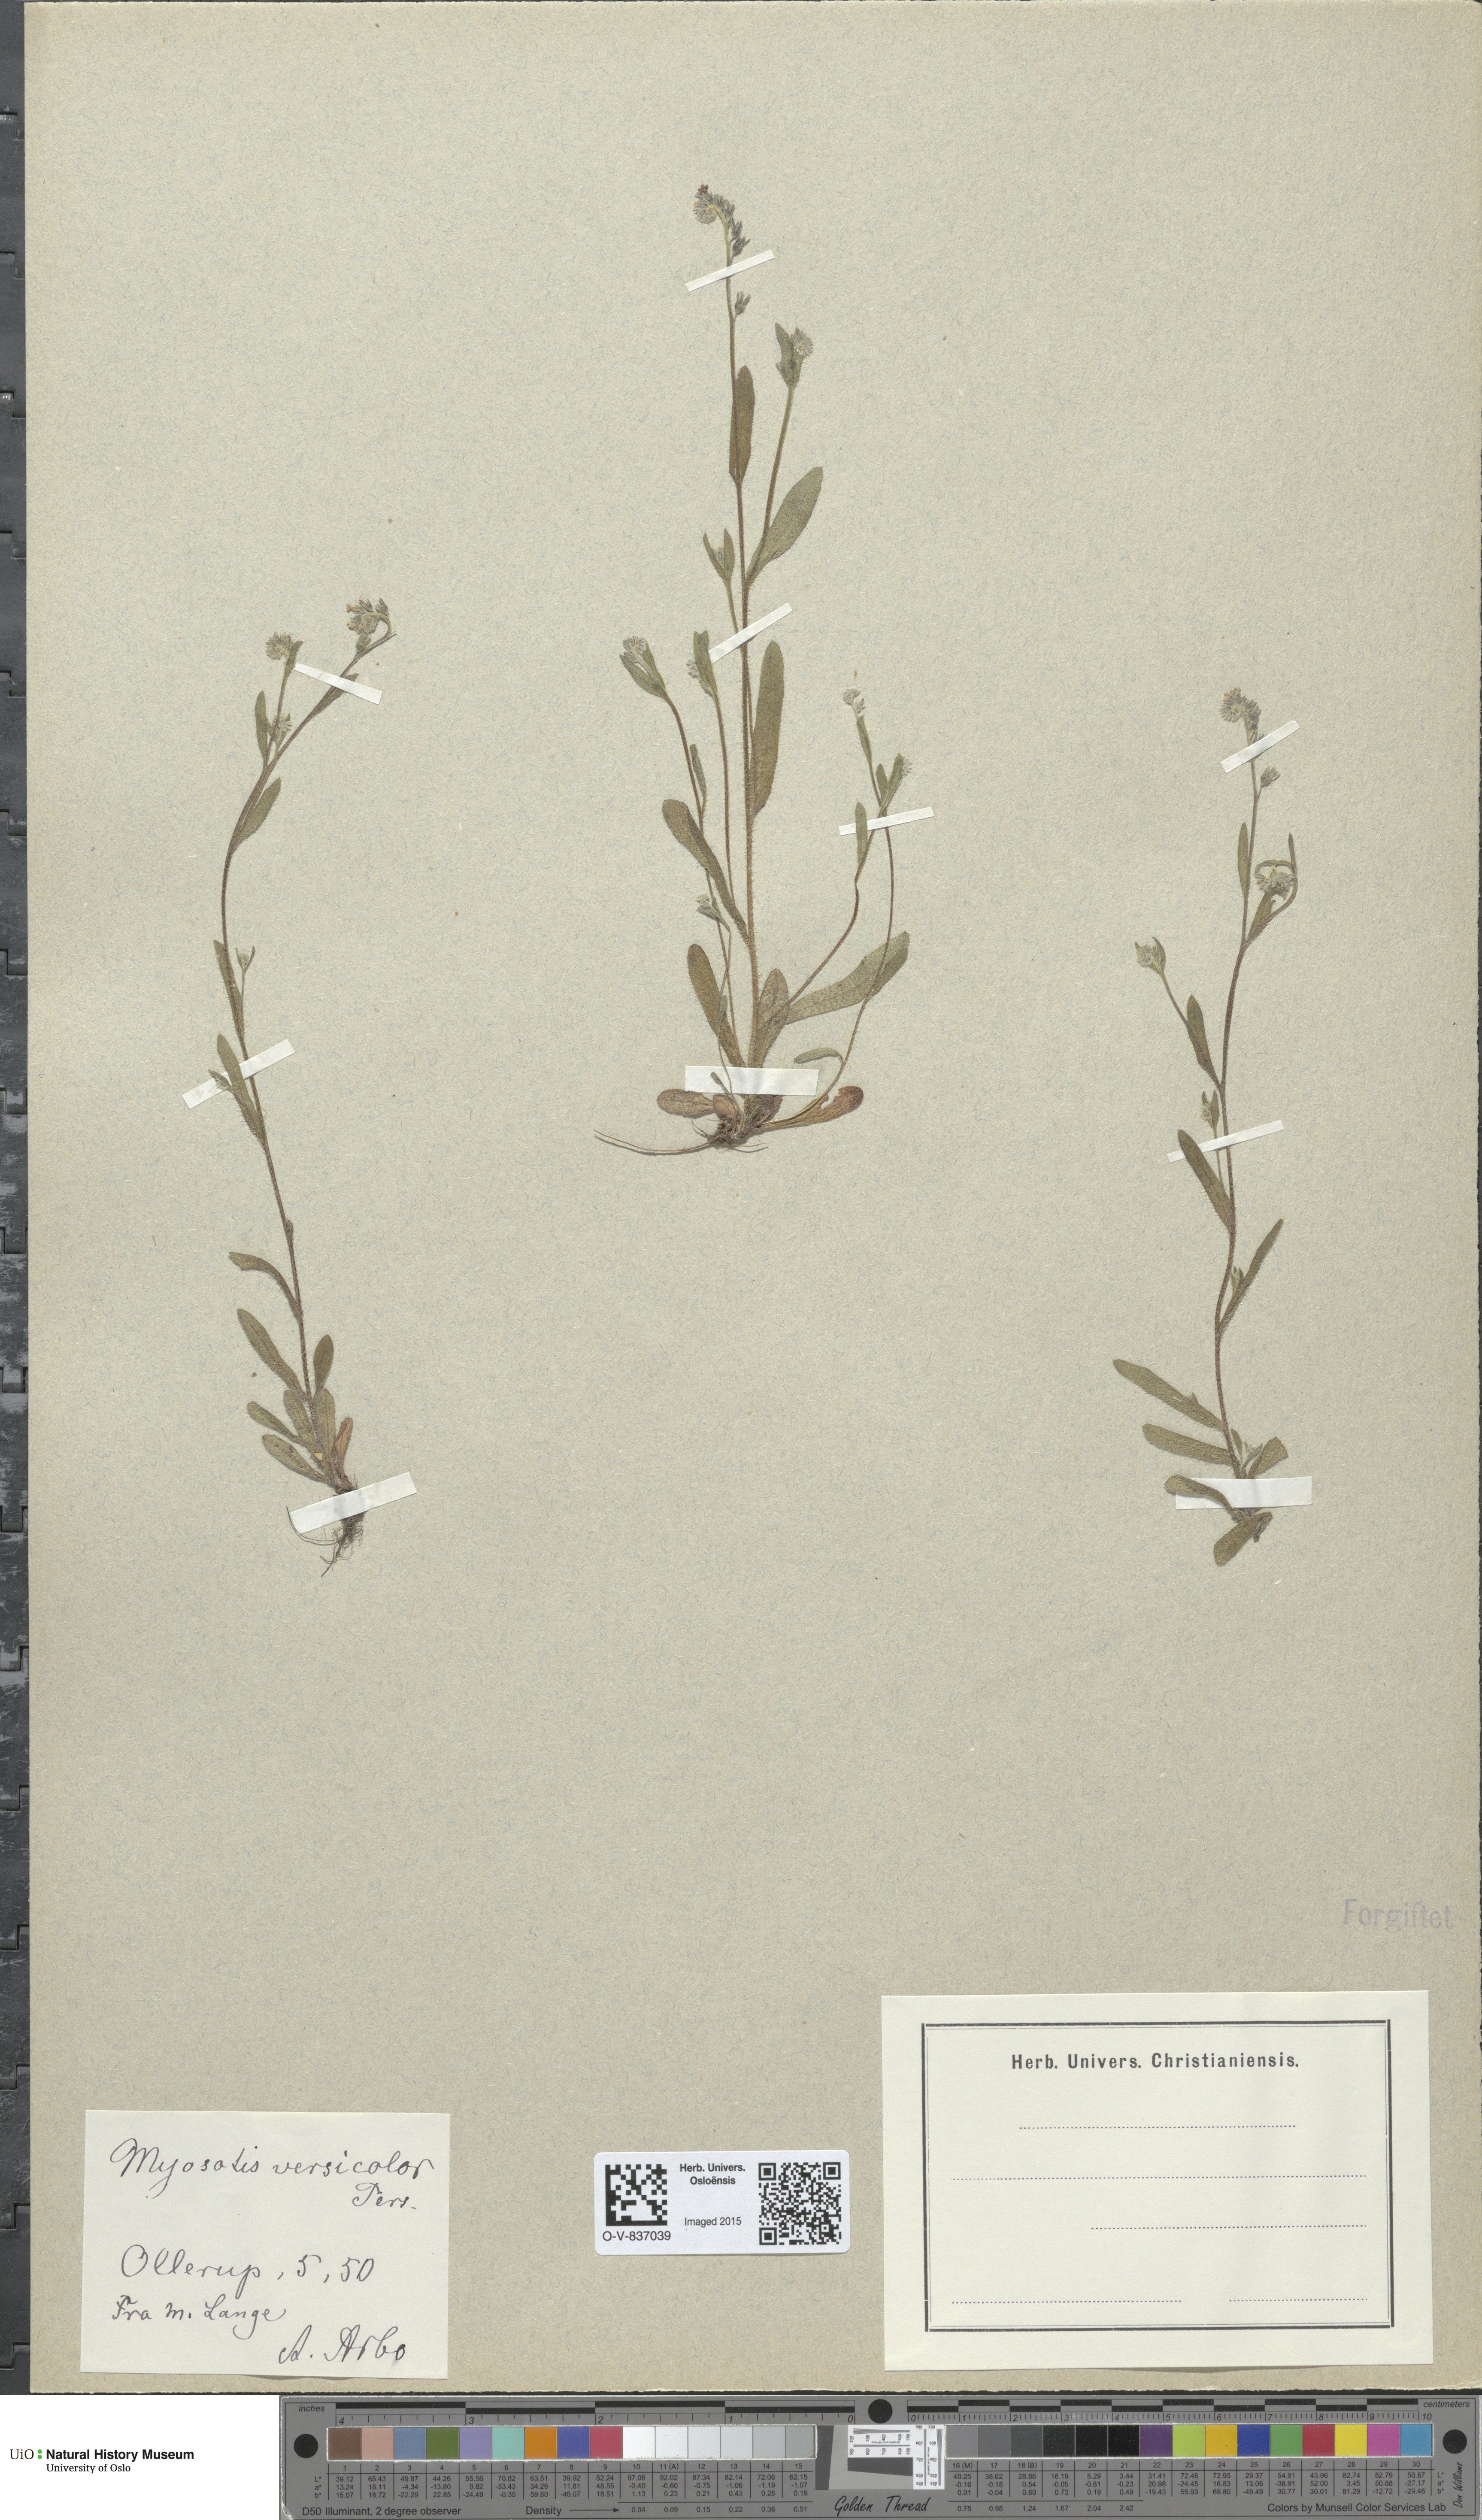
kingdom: Plantae
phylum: Tracheophyta
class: Magnoliopsida
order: Boraginales
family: Boraginaceae
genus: Myosotis
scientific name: Myosotis discolor
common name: Changing forget-me-not
